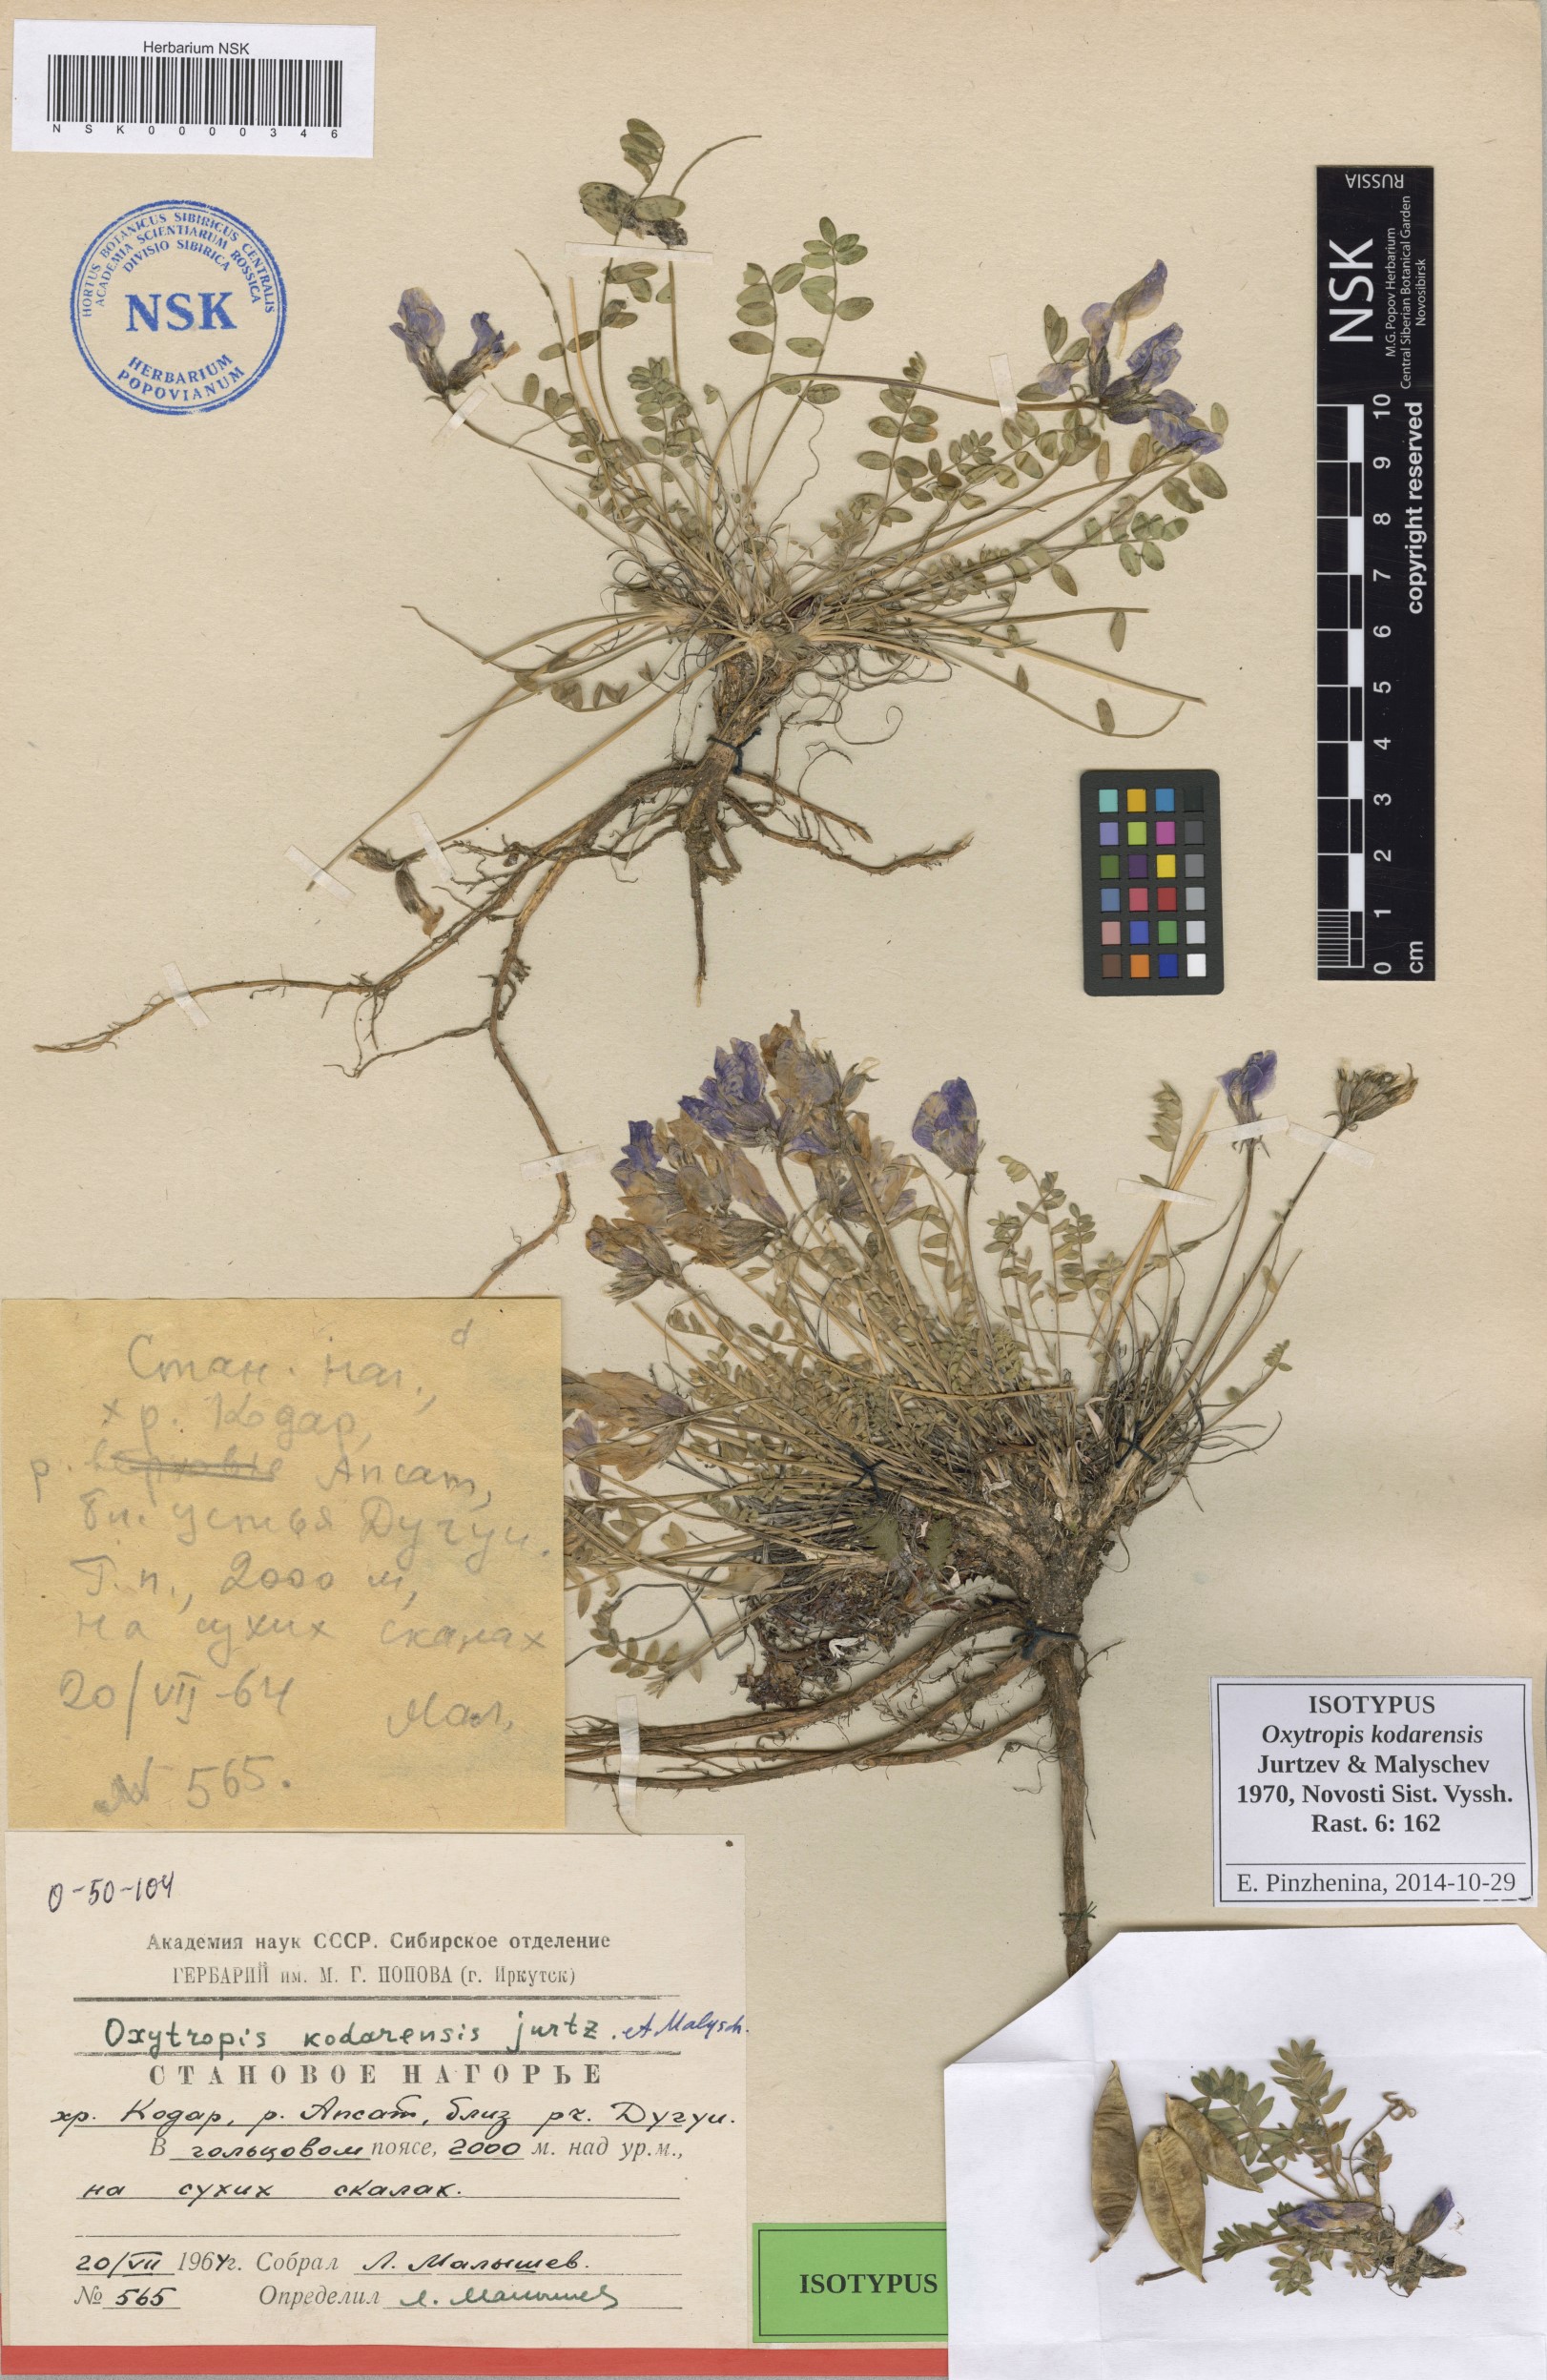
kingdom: Plantae
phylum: Tracheophyta
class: Magnoliopsida
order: Fabales
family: Fabaceae
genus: Oxytropis
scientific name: Oxytropis kodarensis
